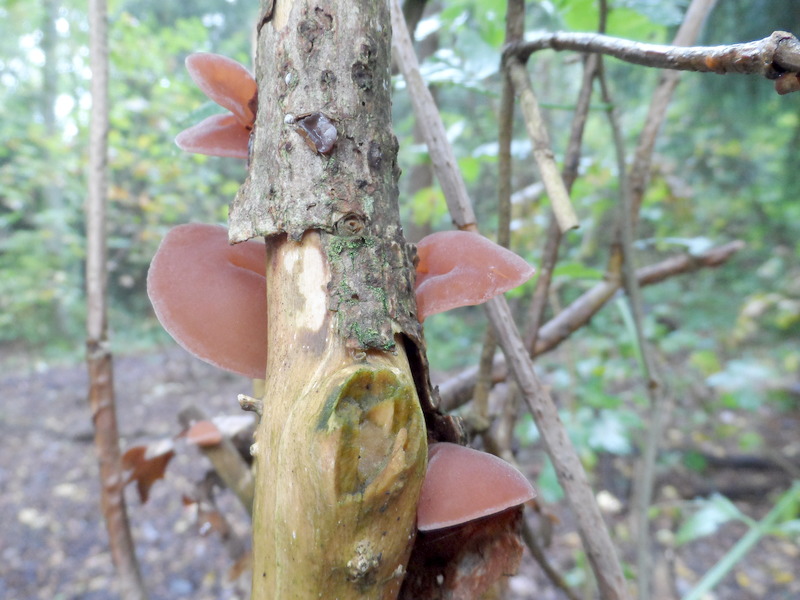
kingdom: Plantae
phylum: Tracheophyta
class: Magnoliopsida
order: Dipsacales
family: Viburnaceae
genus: Sambucus
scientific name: Sambucus nigra
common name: Elder
